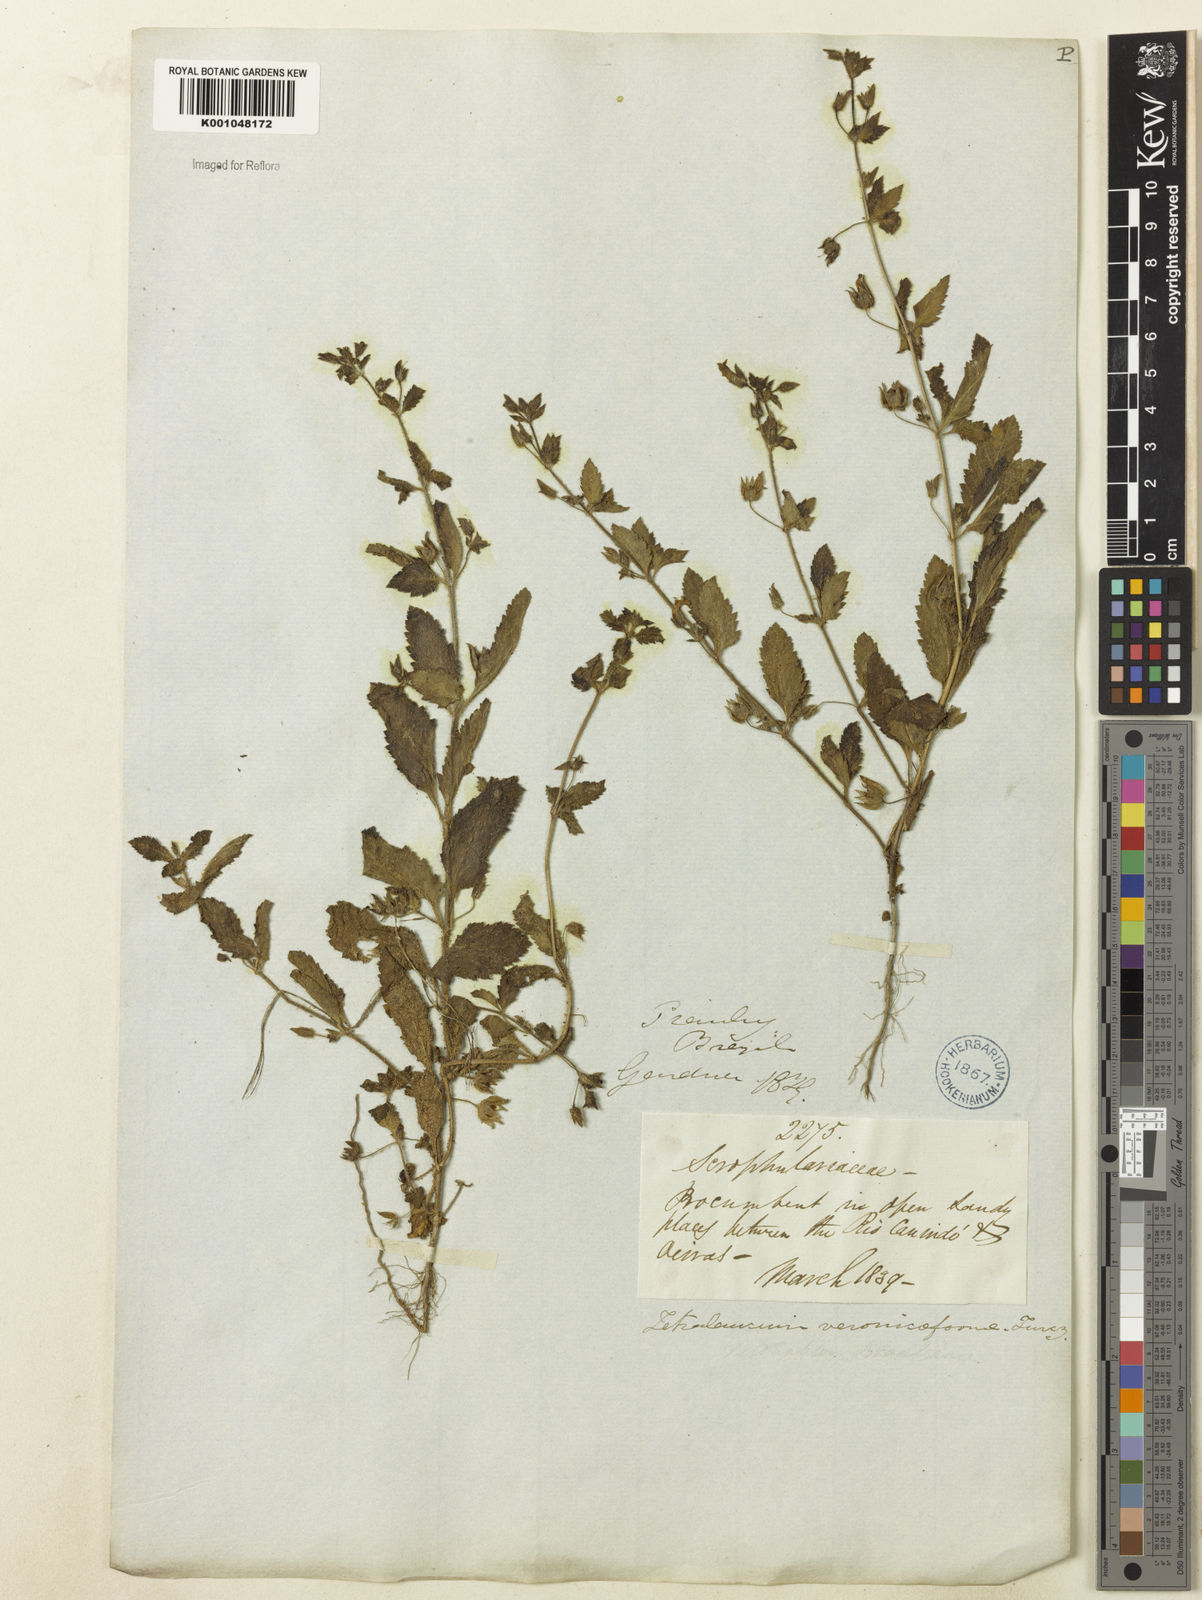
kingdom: Plantae
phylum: Tracheophyta
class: Magnoliopsida
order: Lamiales
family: Plantaginaceae
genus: Tetraulacium
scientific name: Tetraulacium veroniciforme
